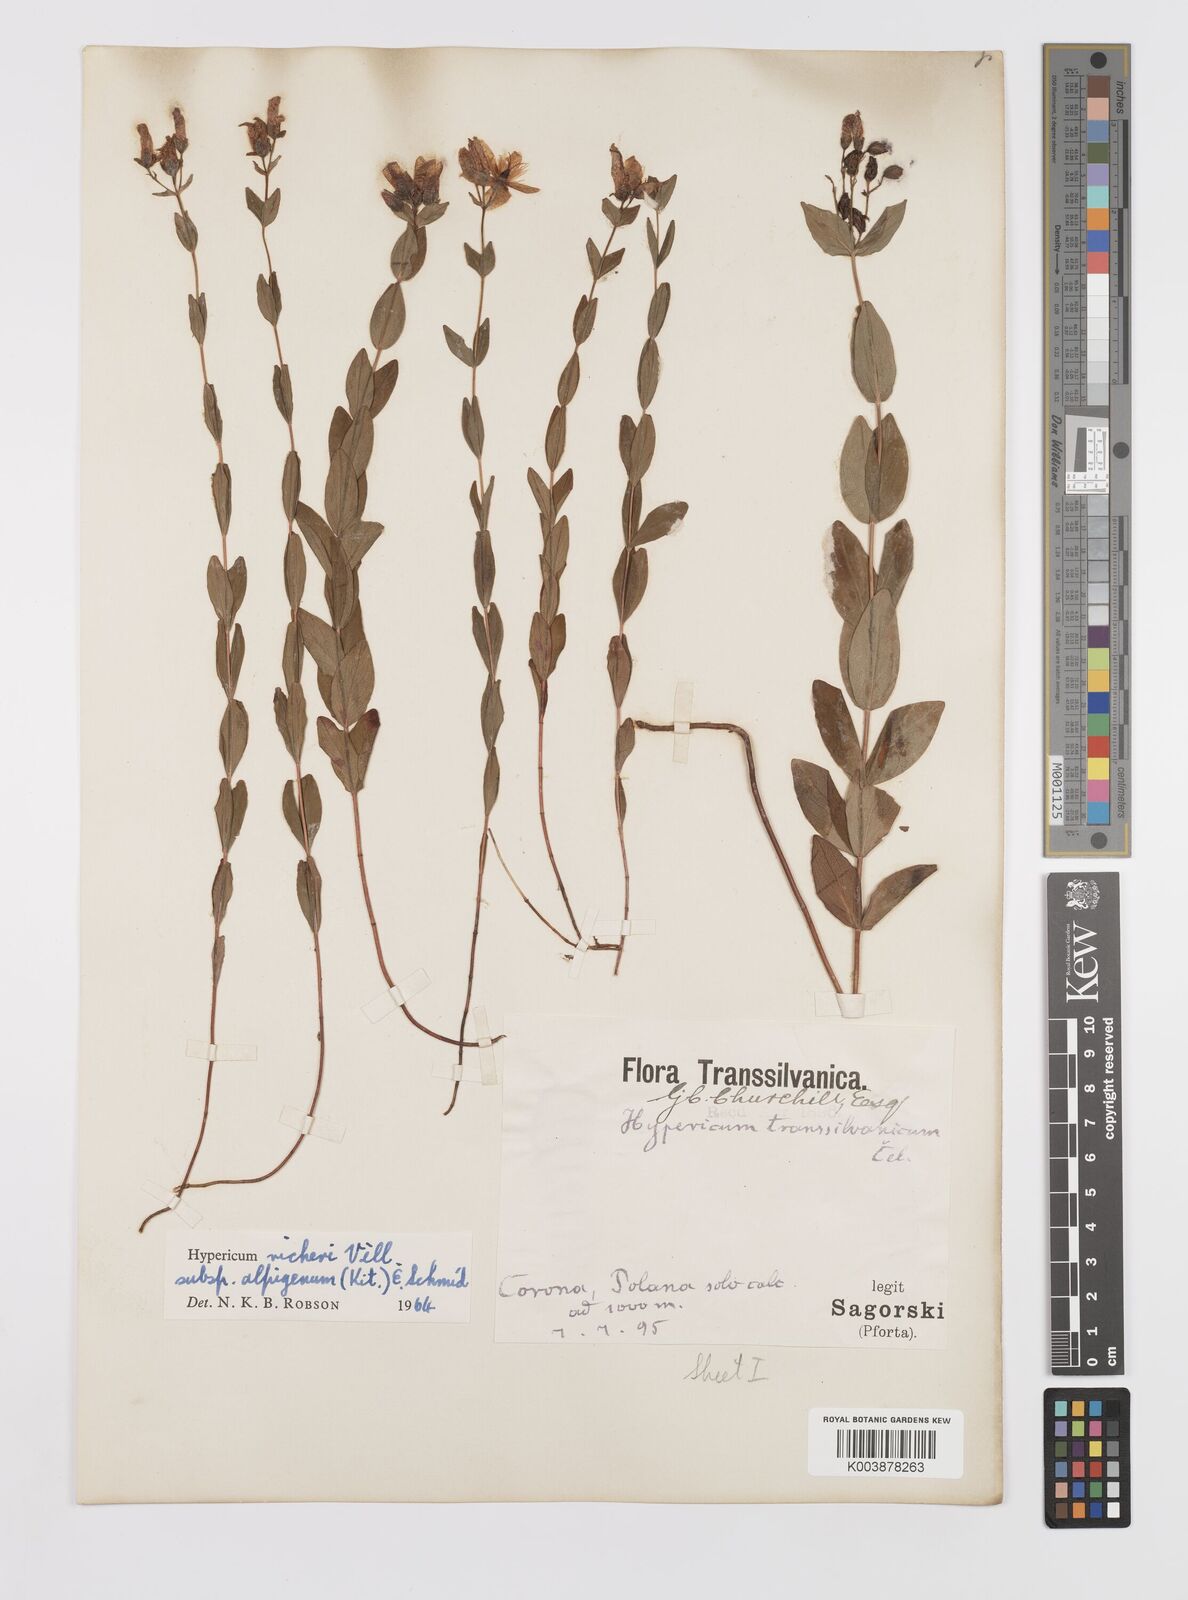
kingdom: Plantae
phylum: Tracheophyta
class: Magnoliopsida
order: Malpighiales
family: Hypericaceae
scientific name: Hypericaceae
